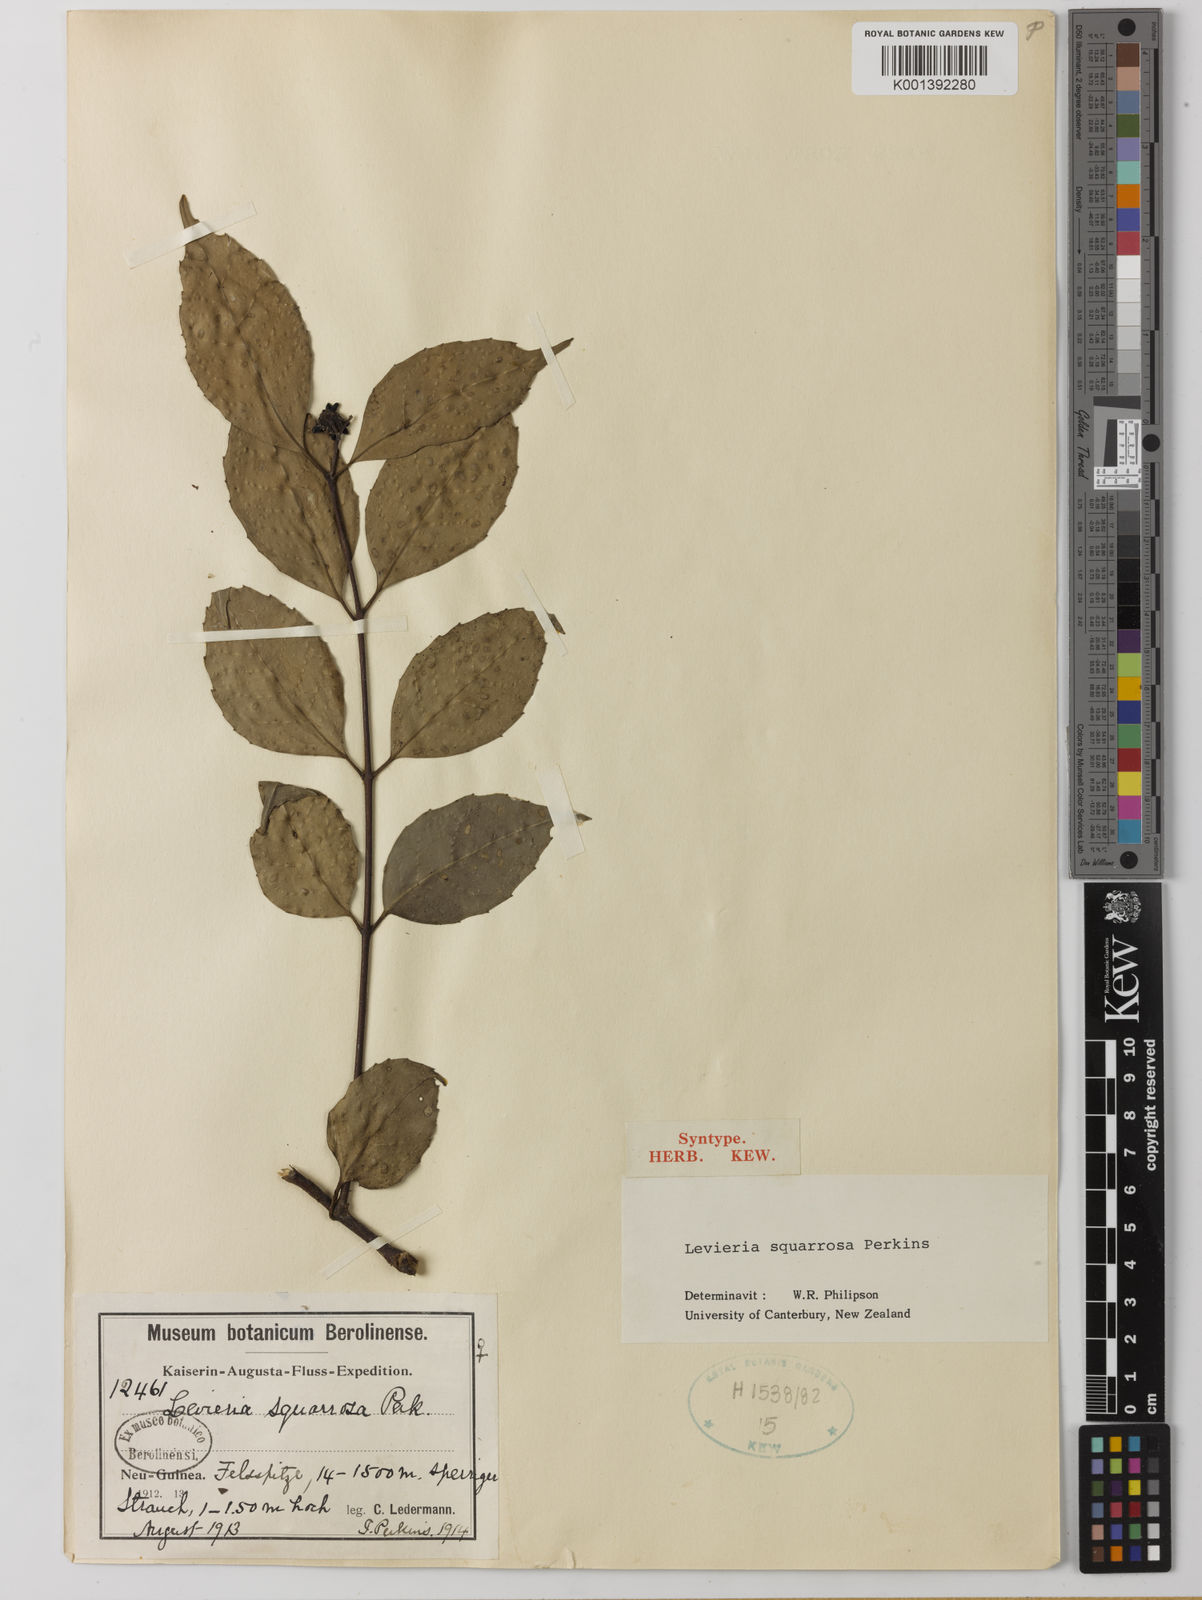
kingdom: Plantae
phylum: Tracheophyta
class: Magnoliopsida
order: Laurales
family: Monimiaceae
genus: Levieria
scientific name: Levieria squarrosa
